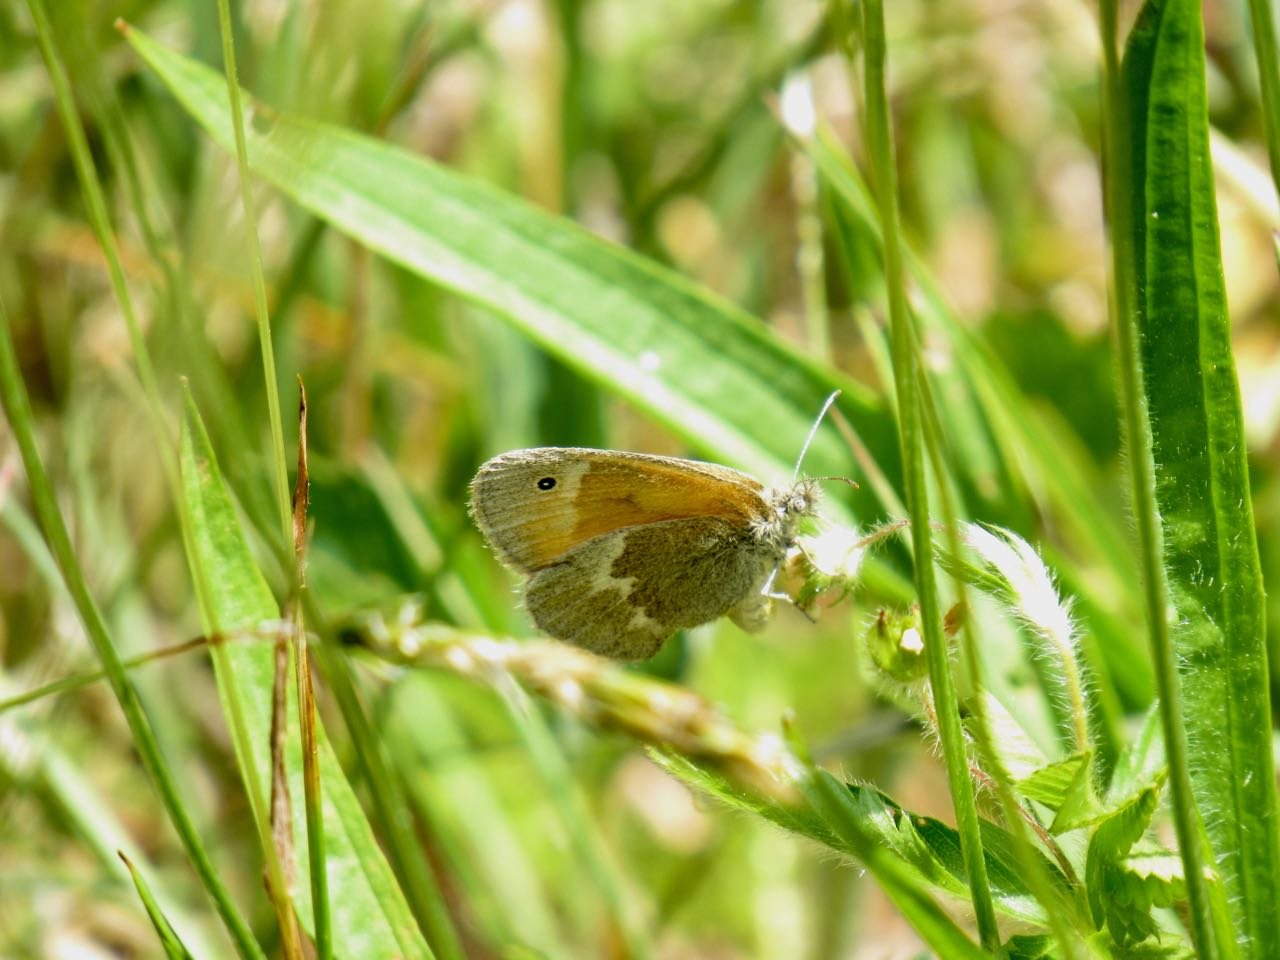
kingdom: Animalia
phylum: Arthropoda
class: Insecta
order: Lepidoptera
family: Nymphalidae
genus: Coenonympha
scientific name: Coenonympha tullia
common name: Large Heath
